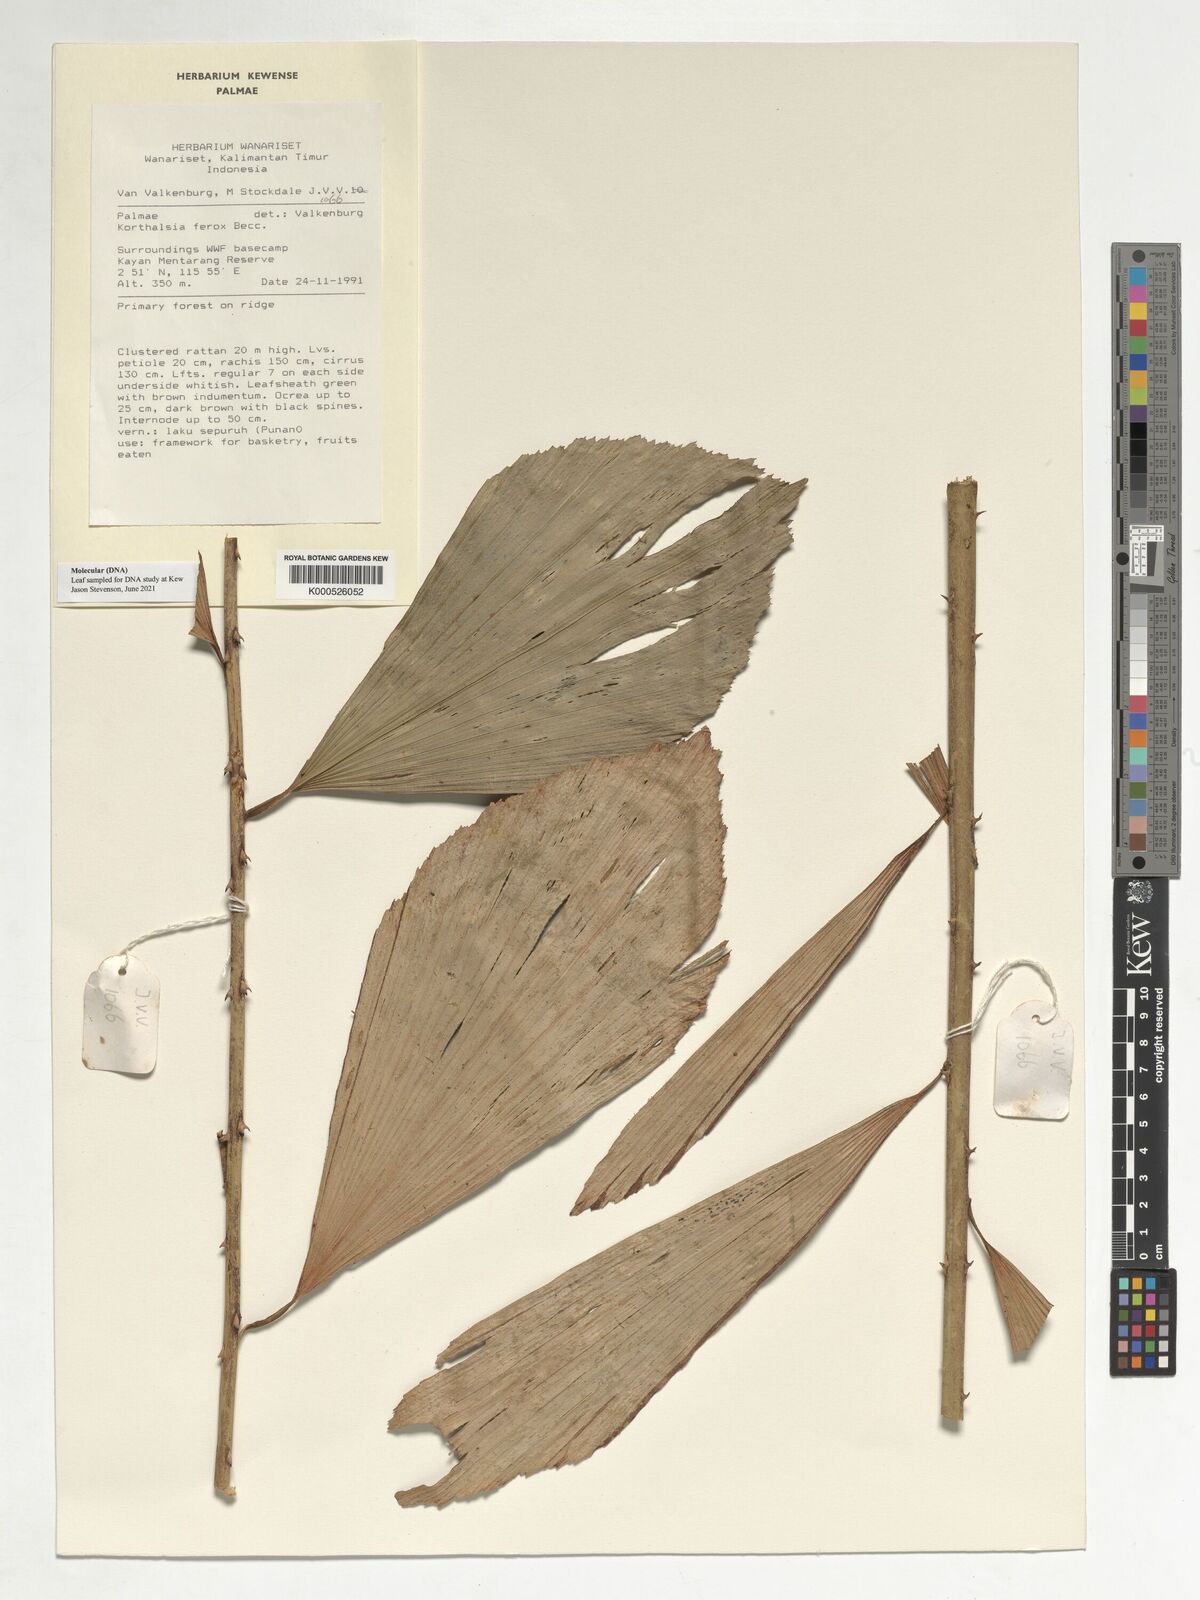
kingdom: Plantae
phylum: Tracheophyta
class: Liliopsida
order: Arecales
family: Arecaceae
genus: Korthalsia
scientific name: Korthalsia ferox
